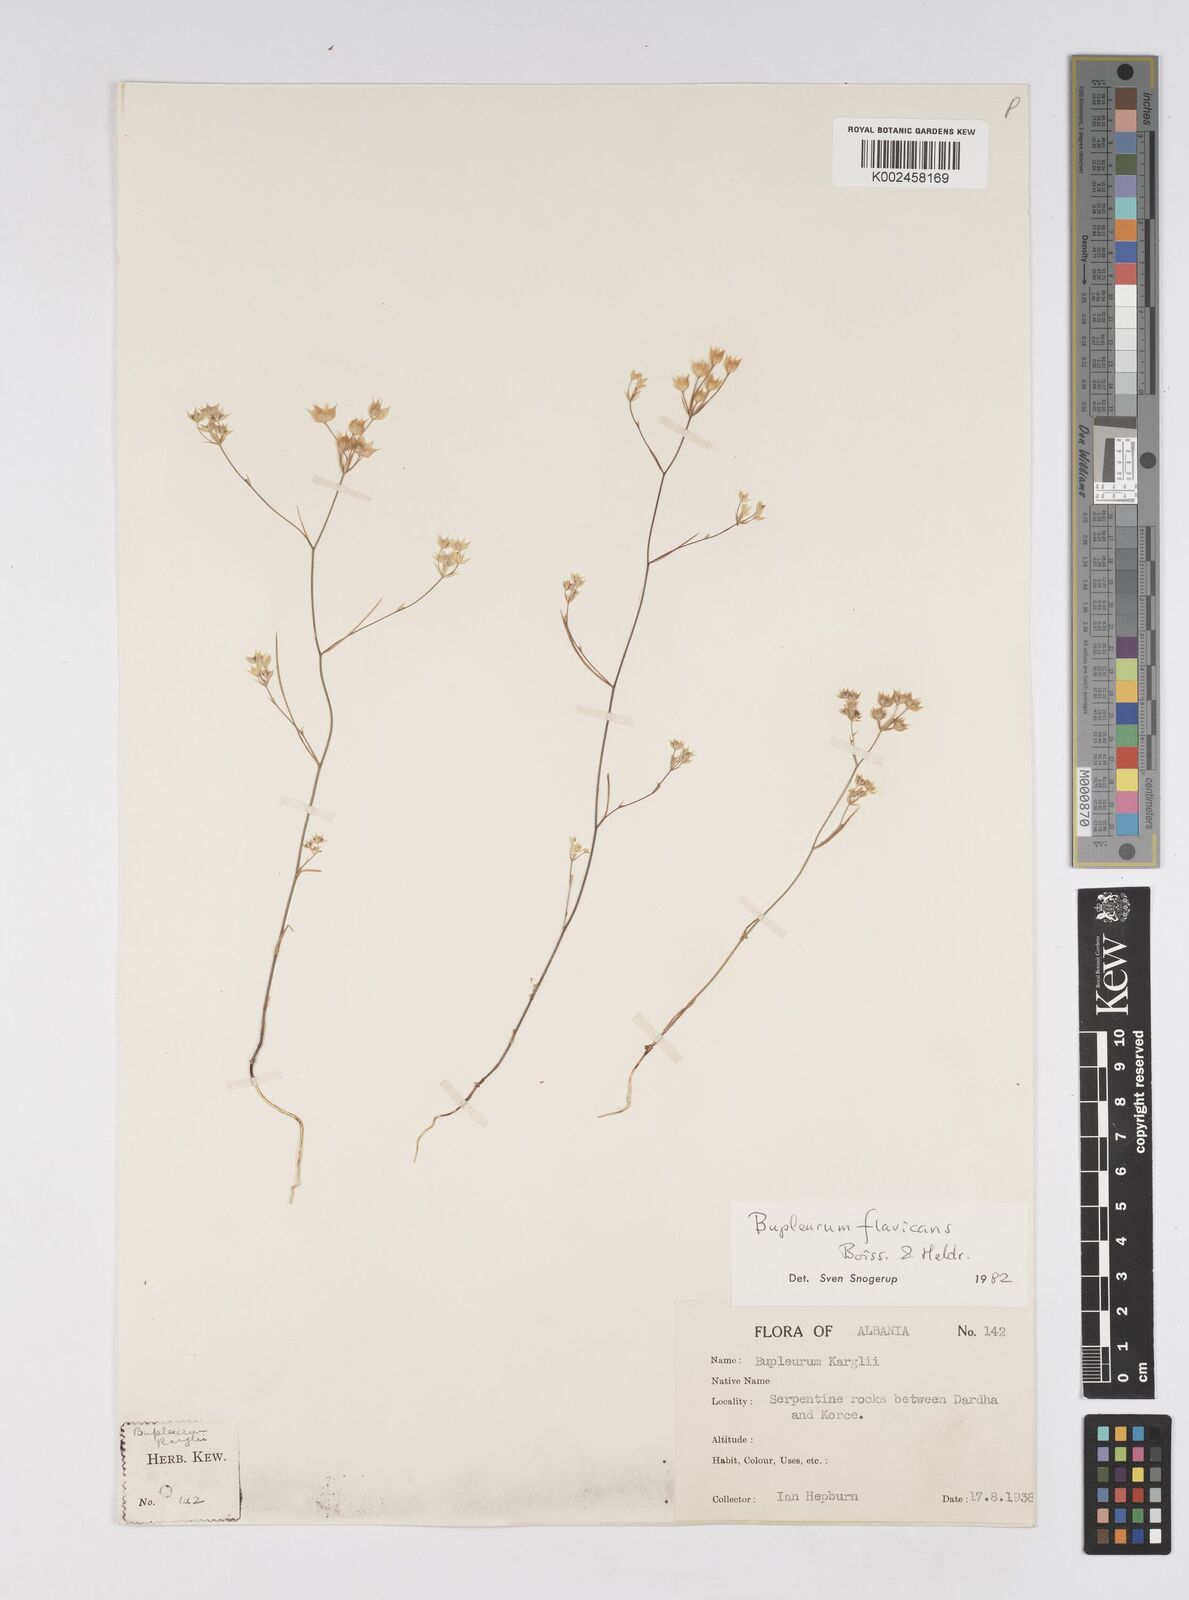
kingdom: Plantae
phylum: Tracheophyta
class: Magnoliopsida
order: Apiales
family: Apiaceae
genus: Bupleurum
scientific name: Bupleurum flavicans
